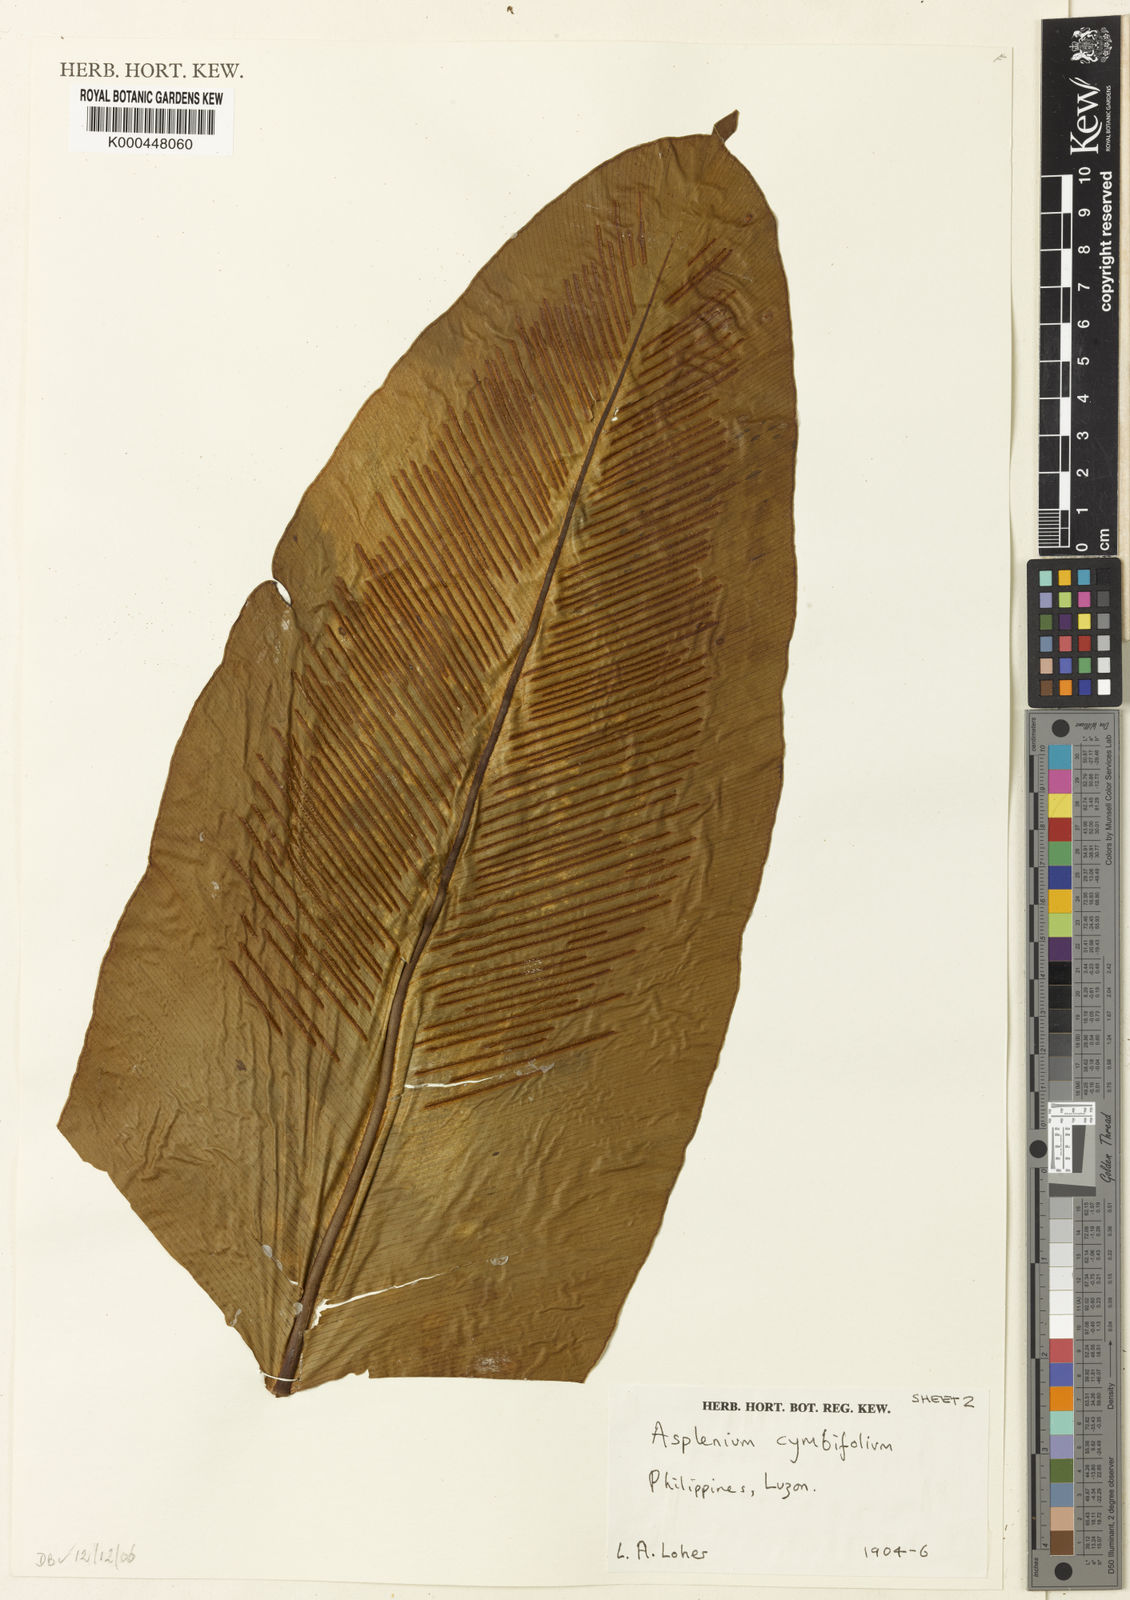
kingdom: Plantae
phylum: Tracheophyta
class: Polypodiopsida
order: Polypodiales
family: Aspleniaceae
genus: Asplenium
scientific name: Asplenium cymbifolium
